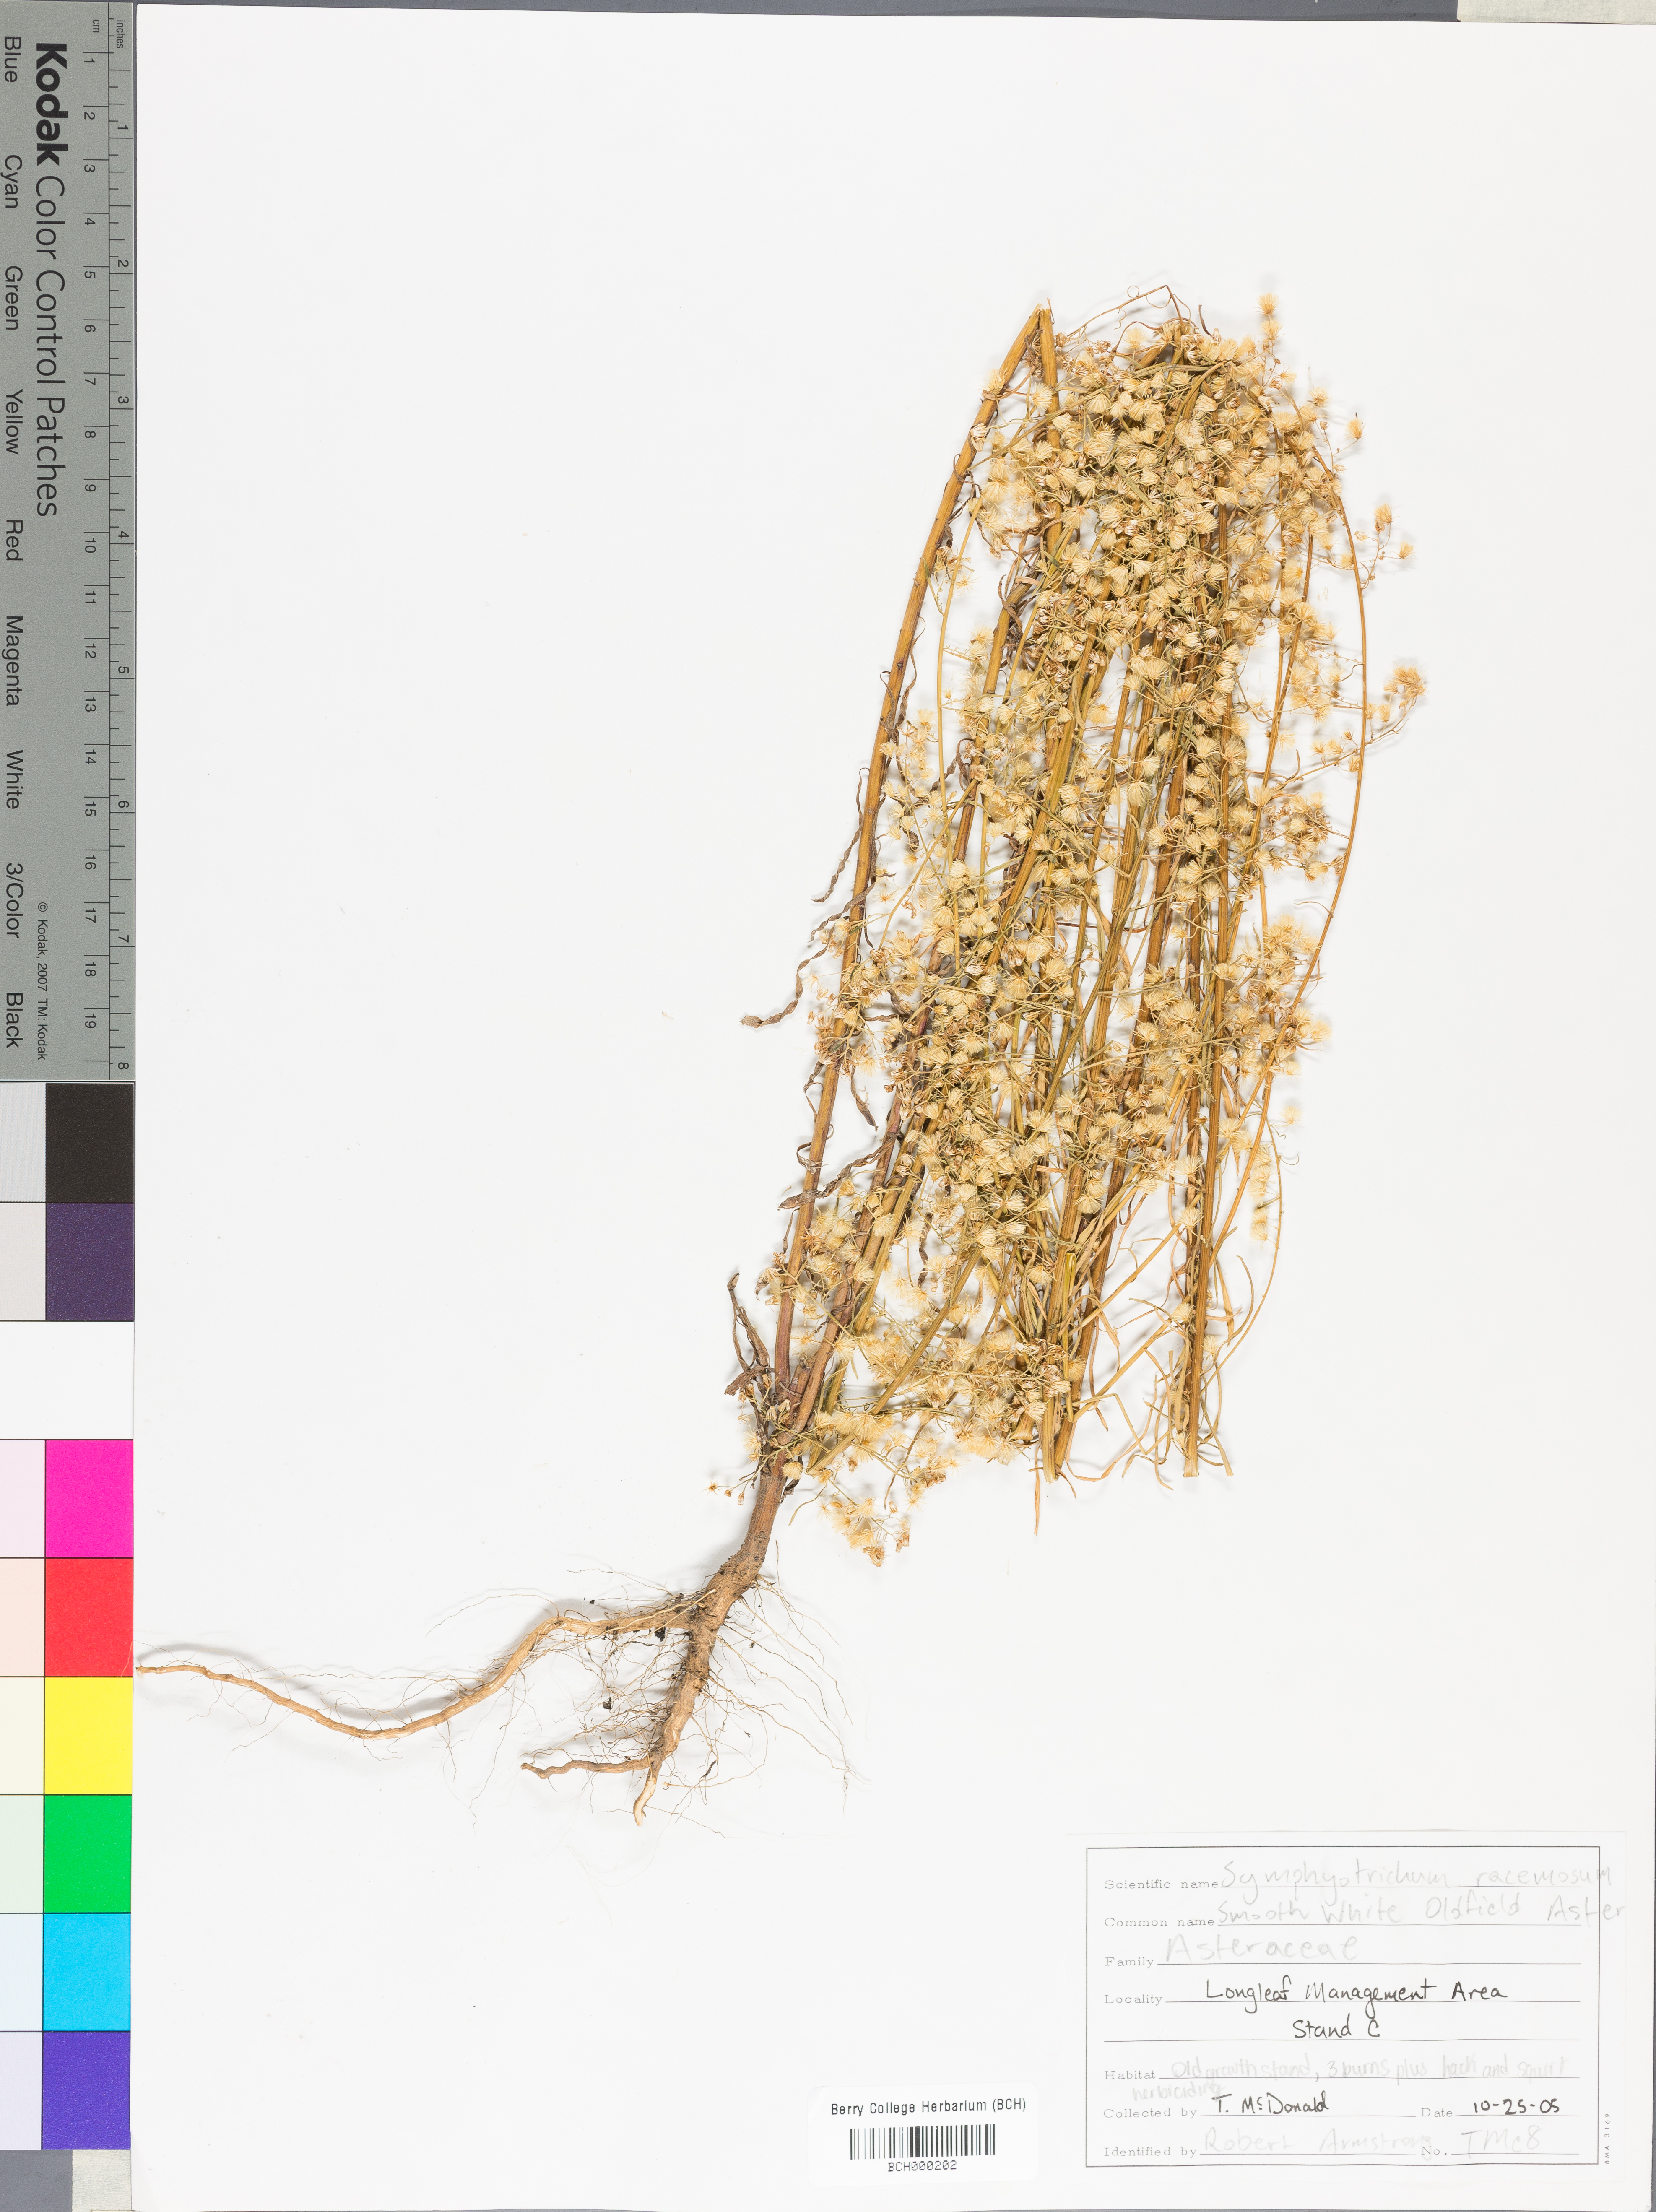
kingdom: Plantae
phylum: Tracheophyta
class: Magnoliopsida
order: Asterales
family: Asteraceae
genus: Symphyotrichum
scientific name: Symphyotrichum racemosum
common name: Small white aster
